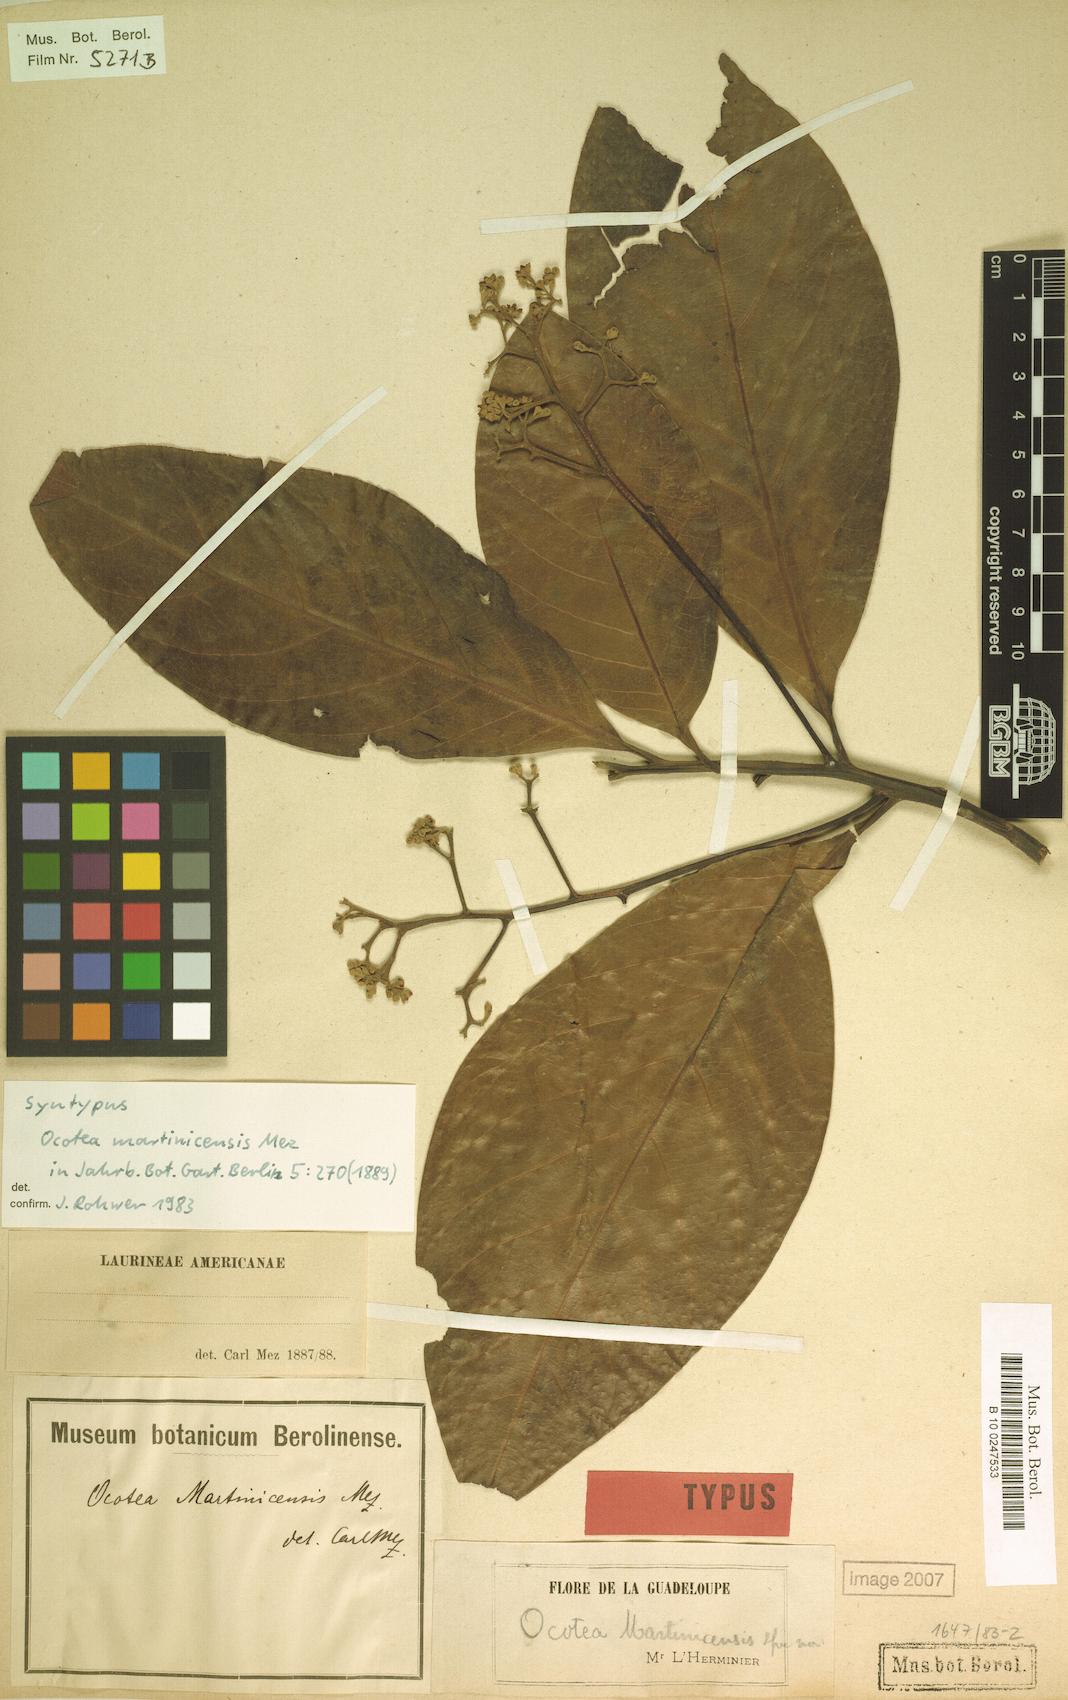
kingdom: Plantae
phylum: Tracheophyta
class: Magnoliopsida
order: Laurales
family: Lauraceae
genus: Ocotea
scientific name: Ocotea martinicensis
